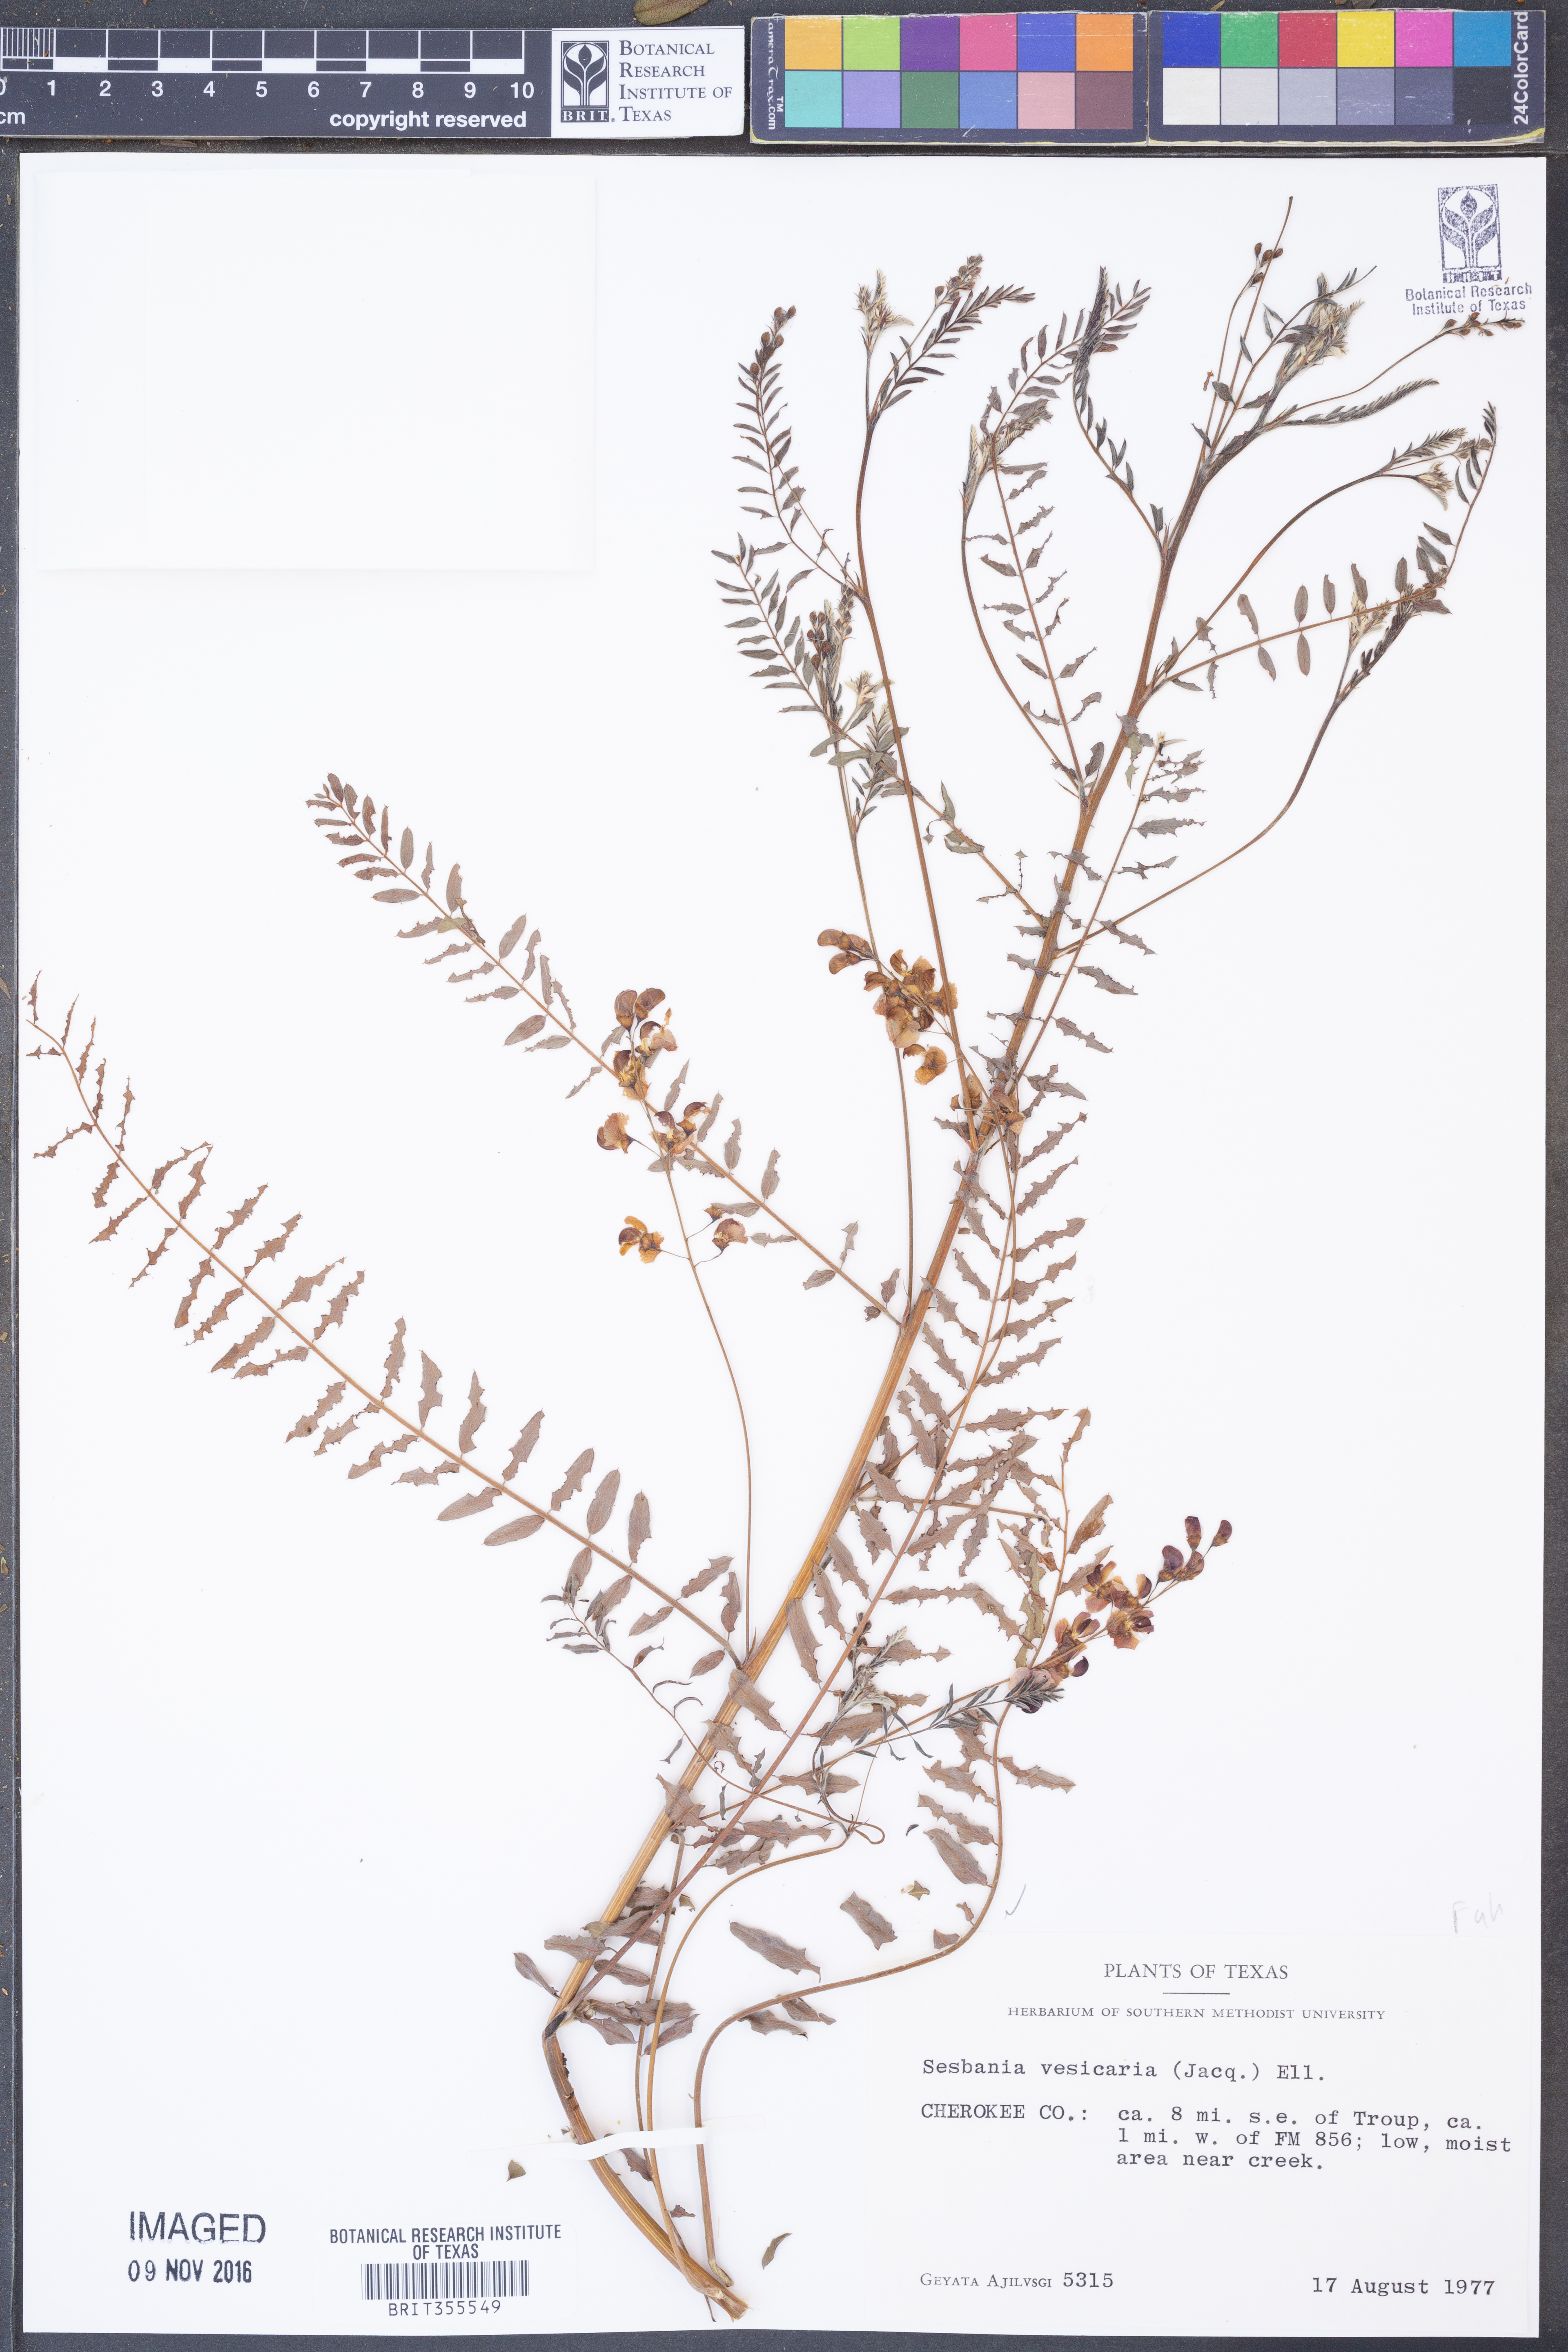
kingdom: Plantae
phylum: Tracheophyta
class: Magnoliopsida
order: Fabales
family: Fabaceae
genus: Sesbania
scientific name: Sesbania vesicaria
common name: Bagpod
